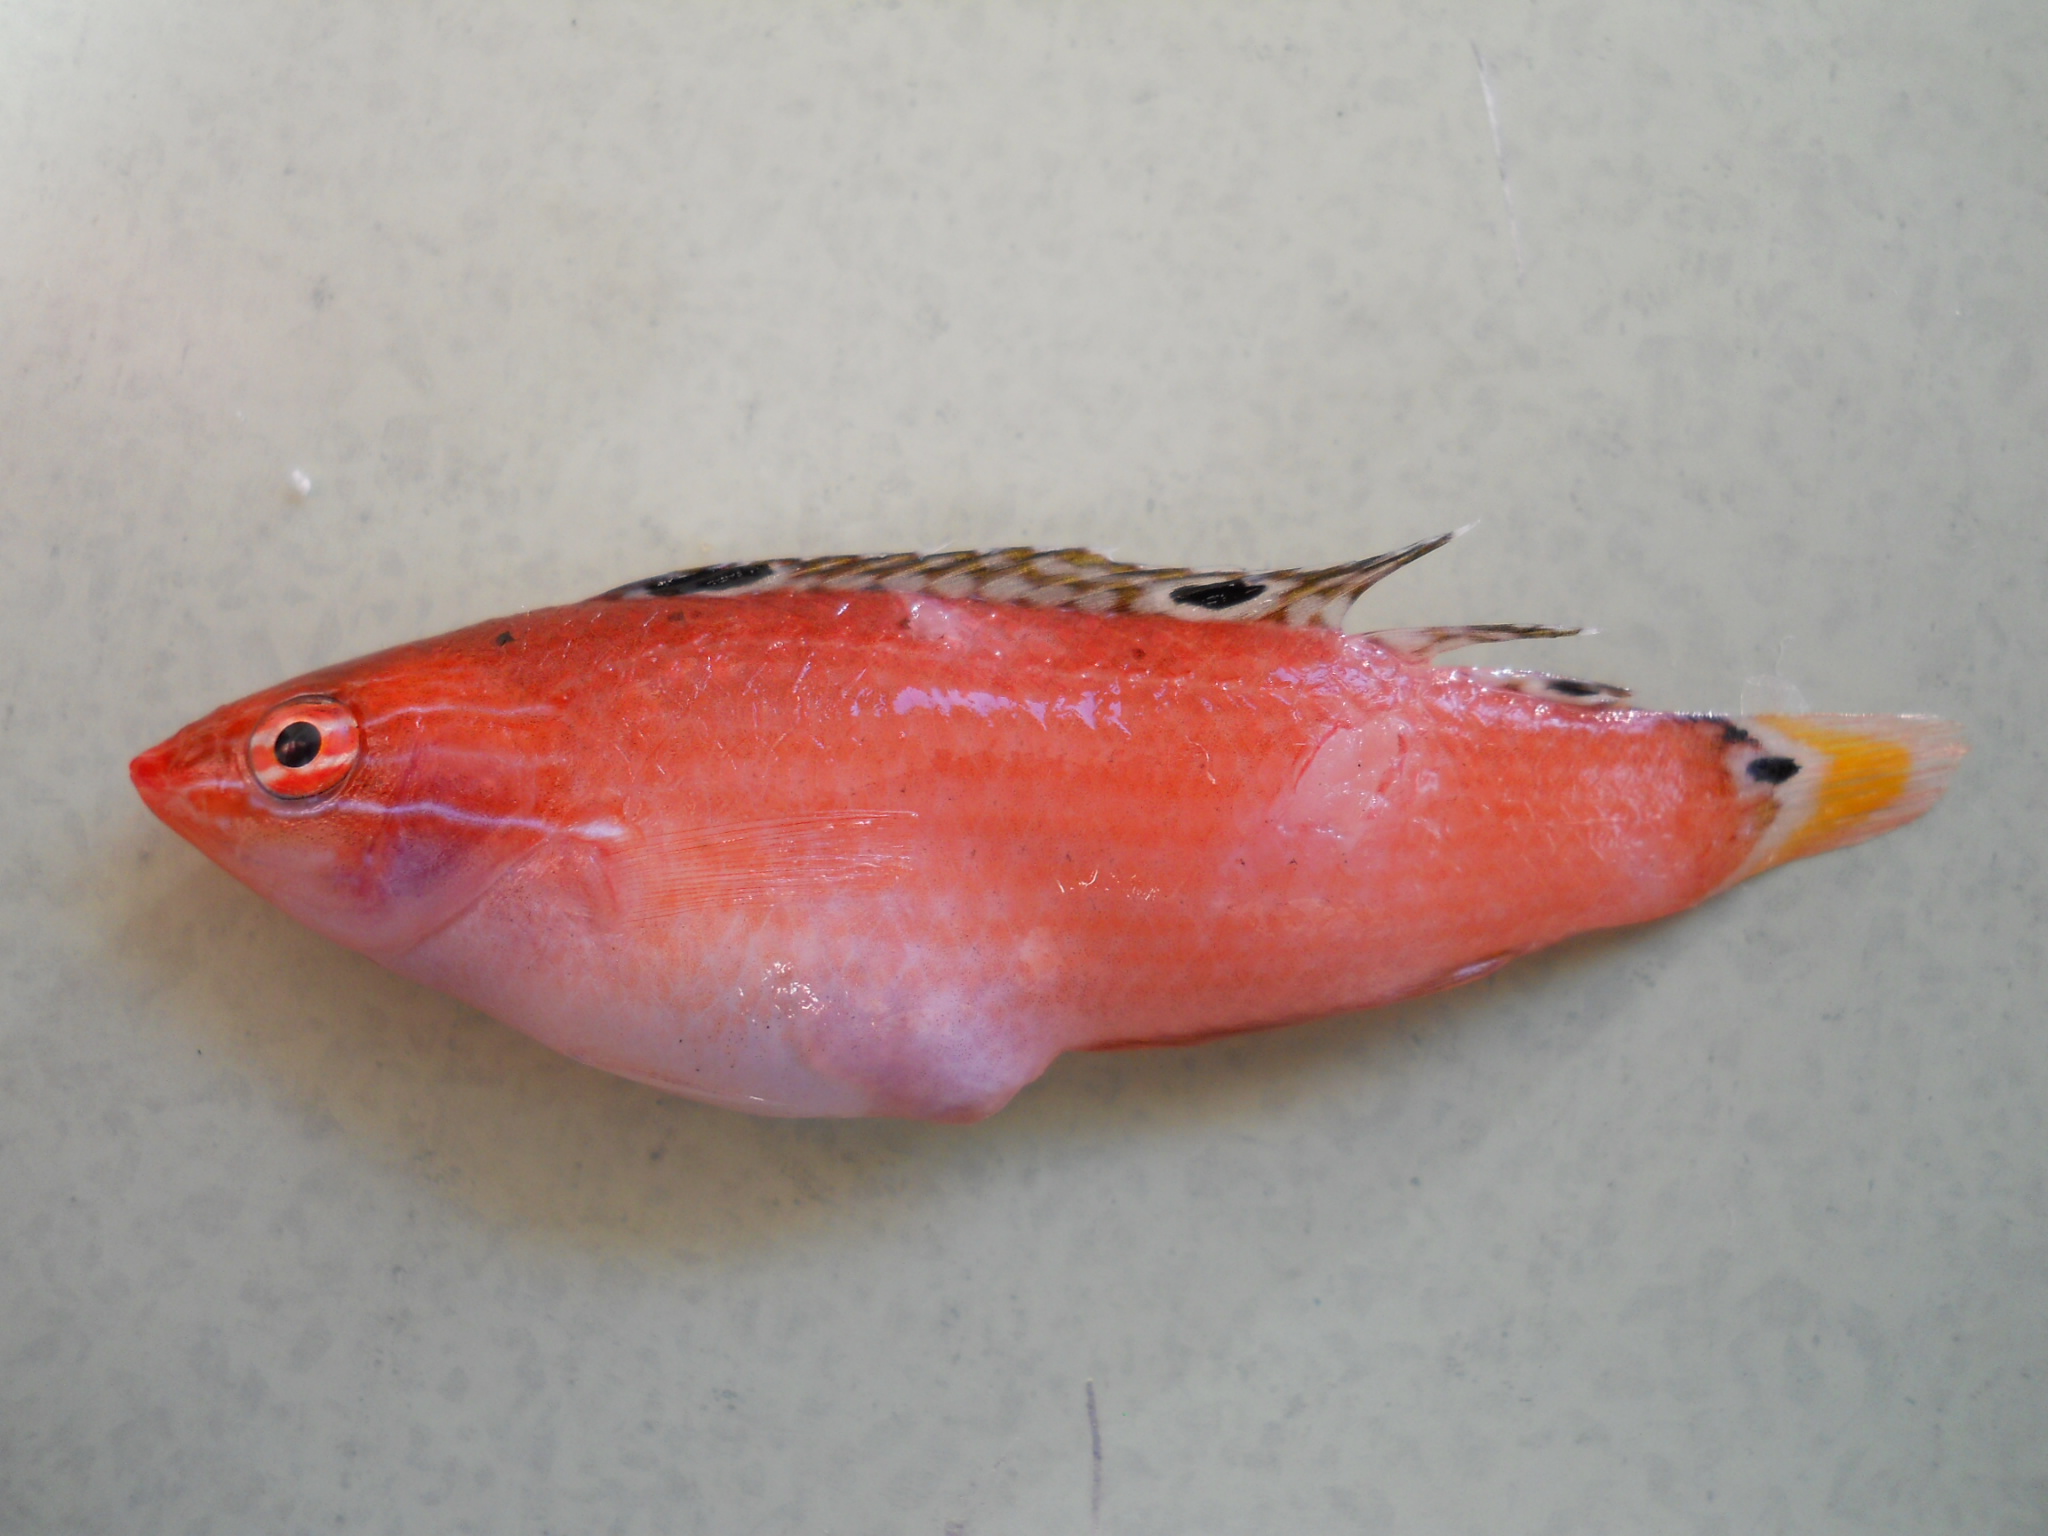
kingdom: Animalia
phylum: Chordata
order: Perciformes
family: Labridae
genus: Halichoeres
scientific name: Halichoeres trispilus
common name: Threespot wrasse
